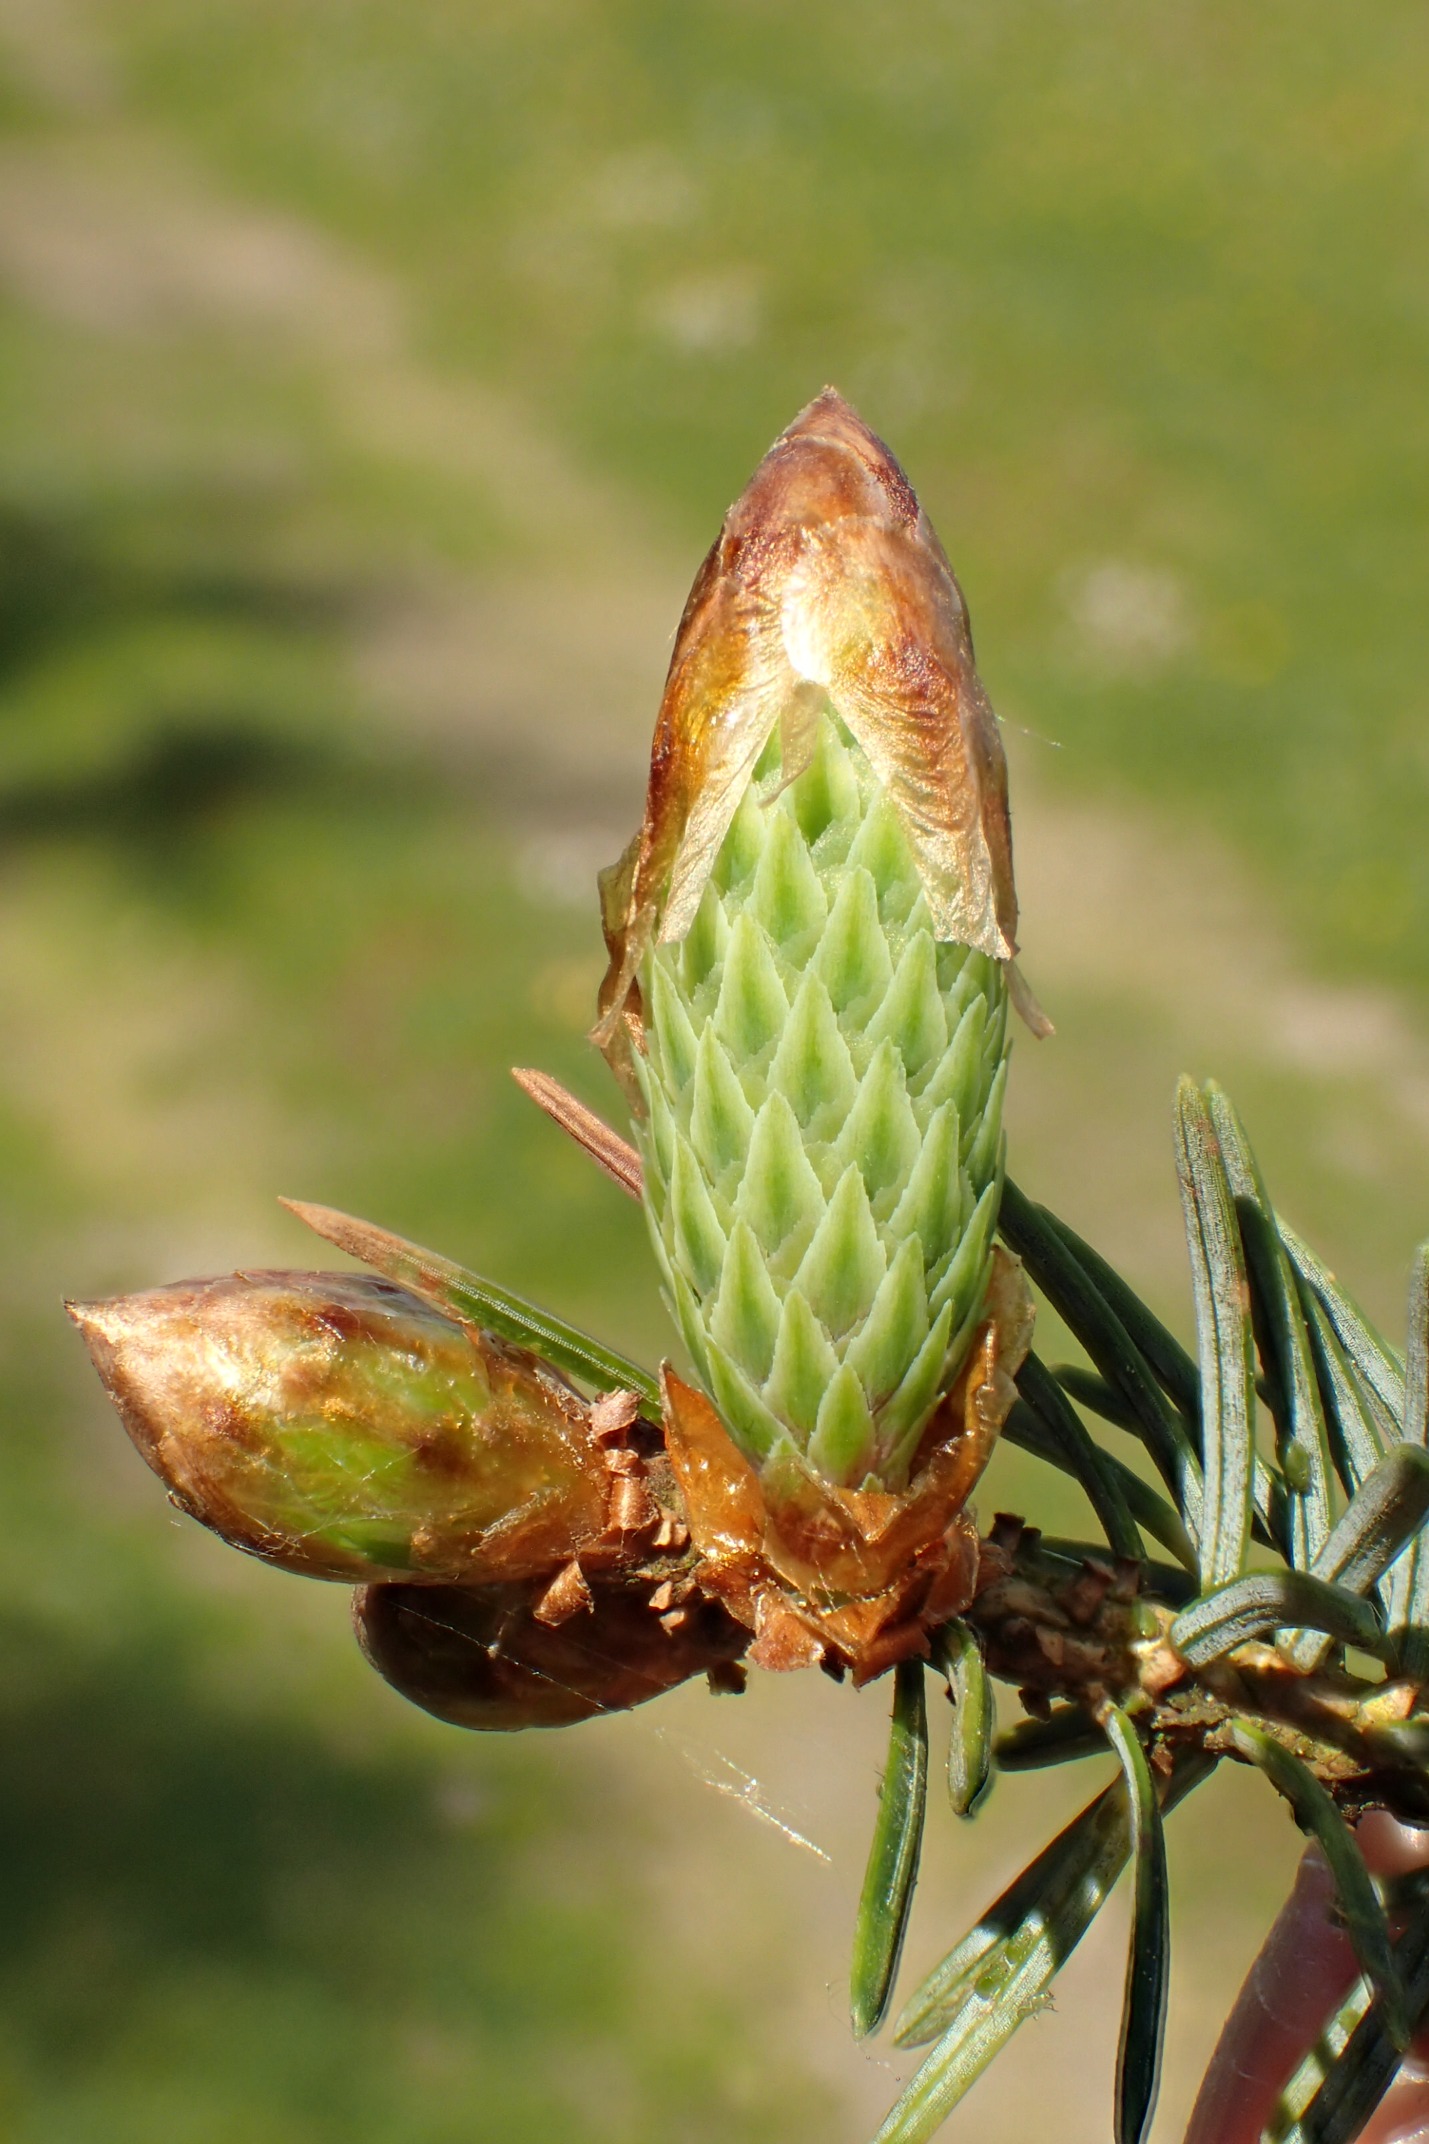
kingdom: Plantae
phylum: Tracheophyta
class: Pinopsida
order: Pinales
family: Pinaceae
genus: Picea
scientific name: Picea pungens
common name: Blå-gran
